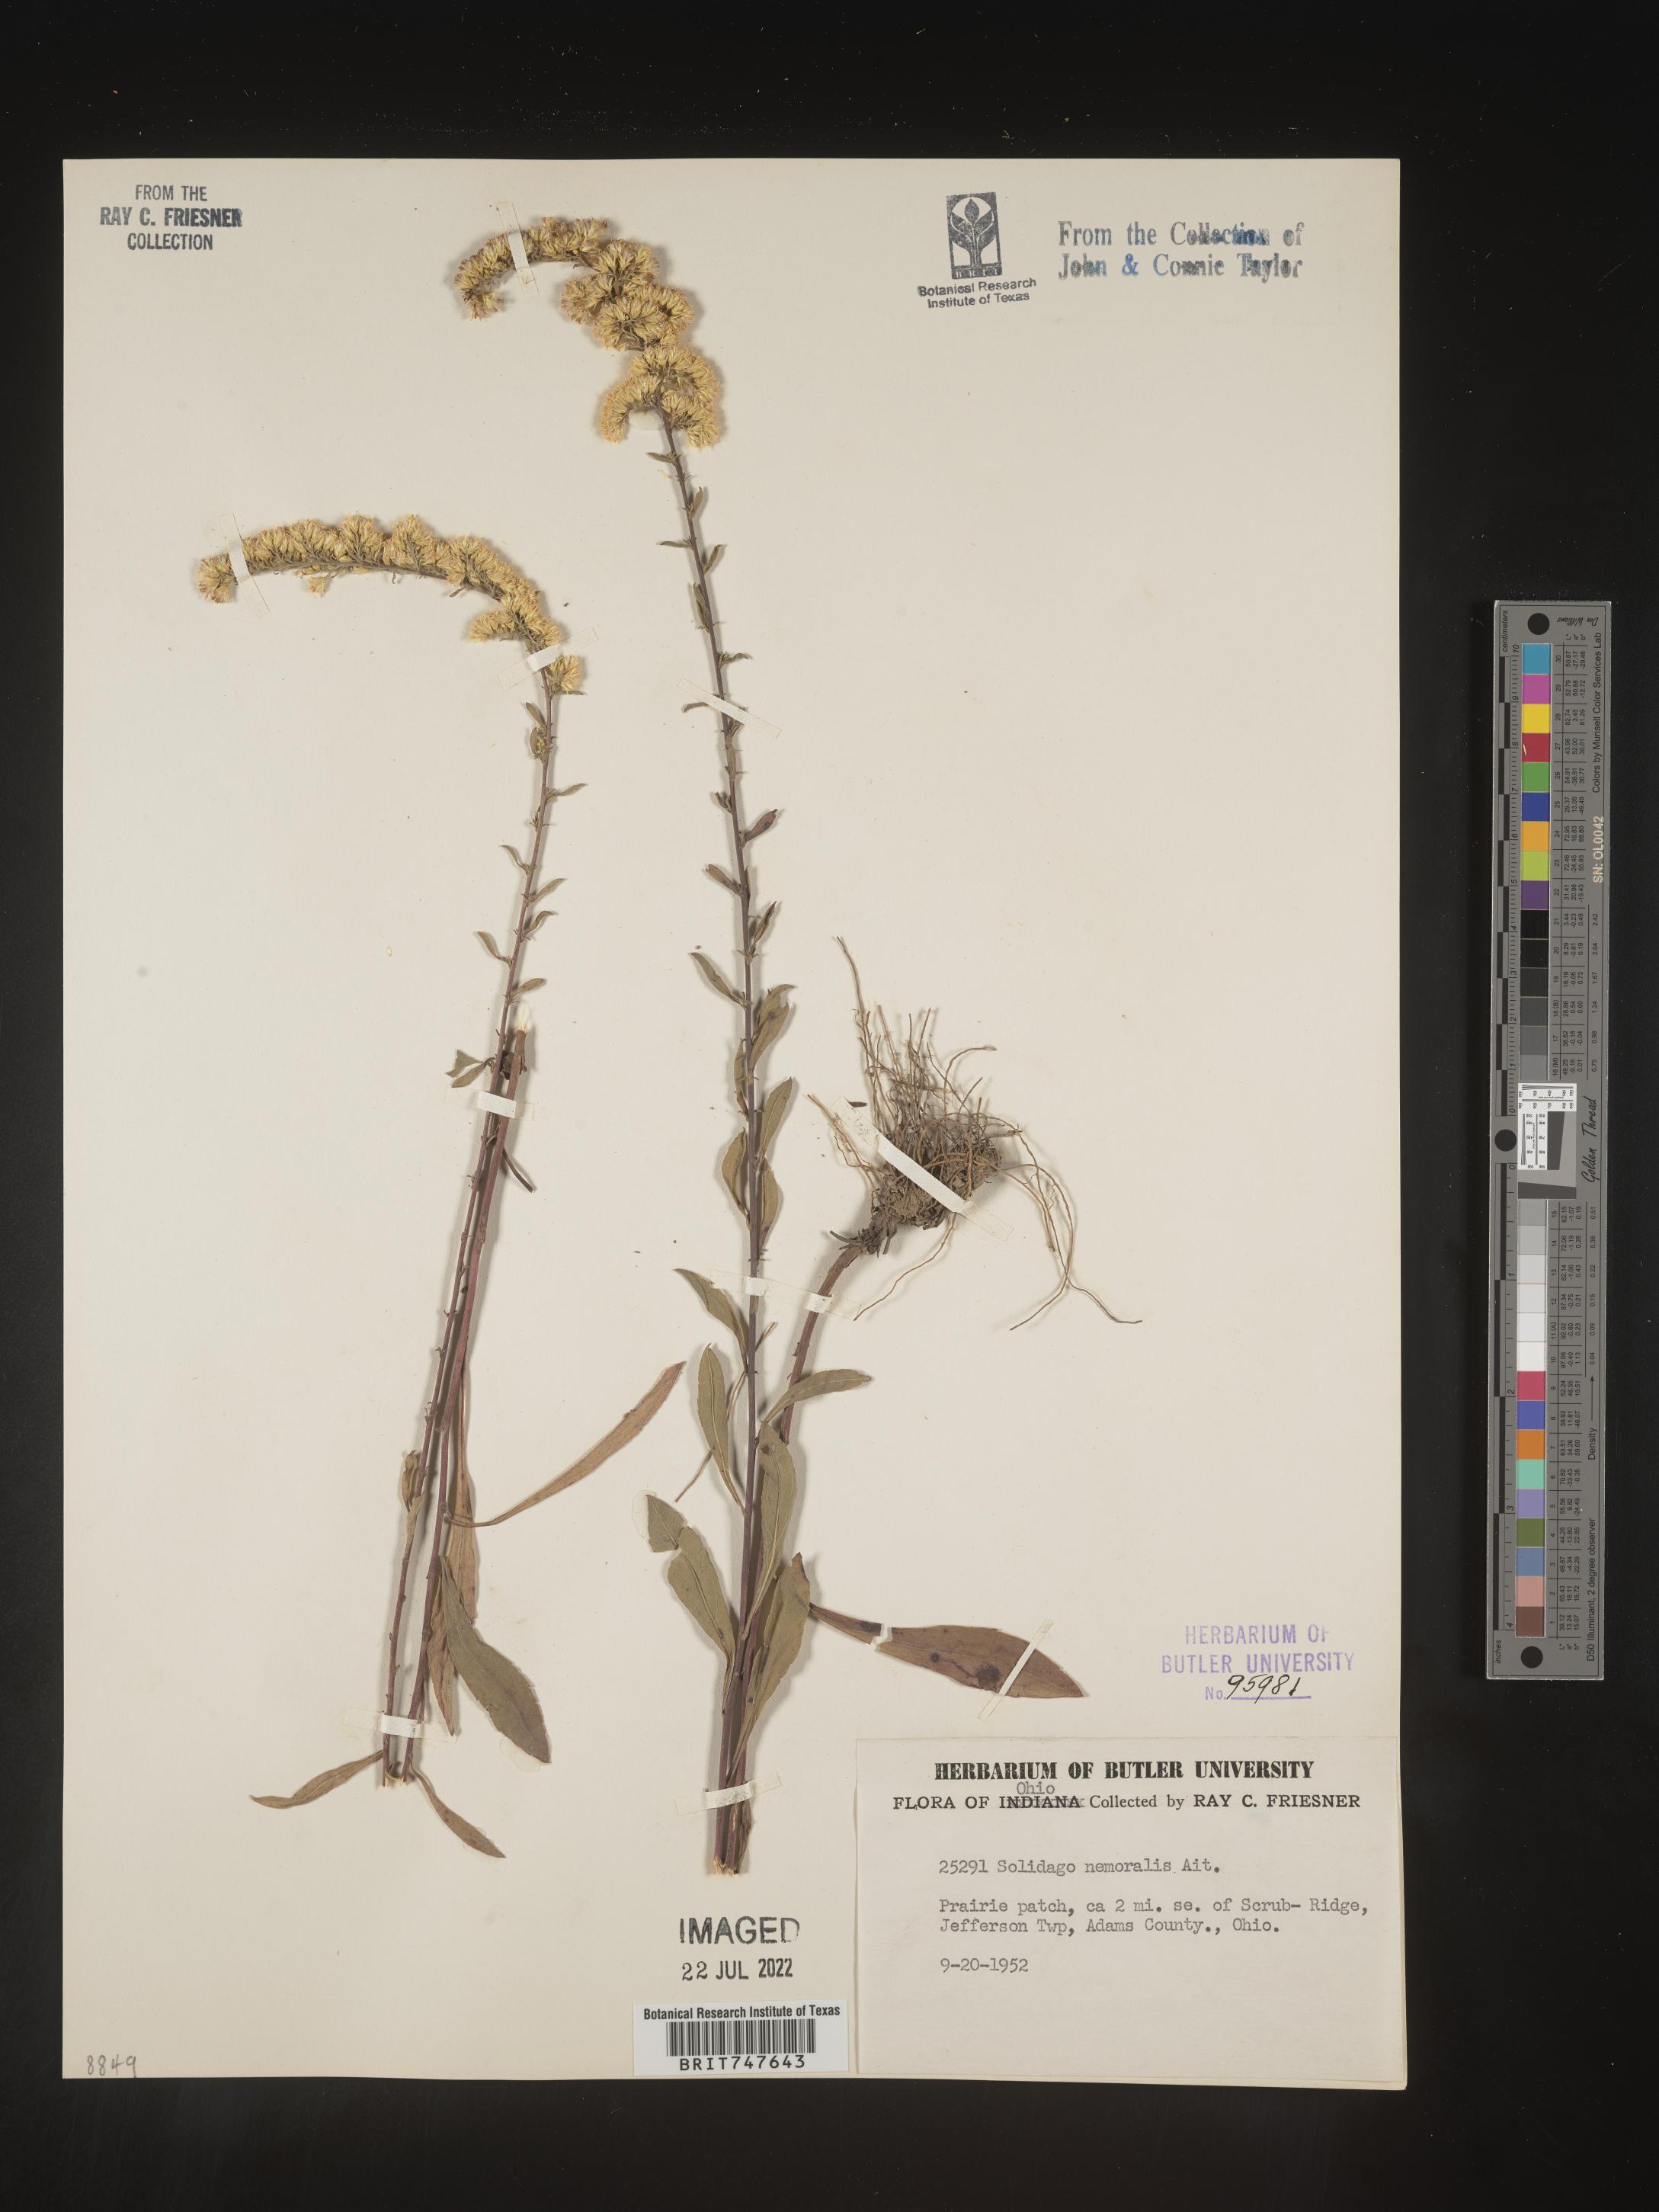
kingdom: Plantae
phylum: Tracheophyta
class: Magnoliopsida
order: Asterales
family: Asteraceae
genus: Solidago
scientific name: Solidago nemoralis
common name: Grey goldenrod
